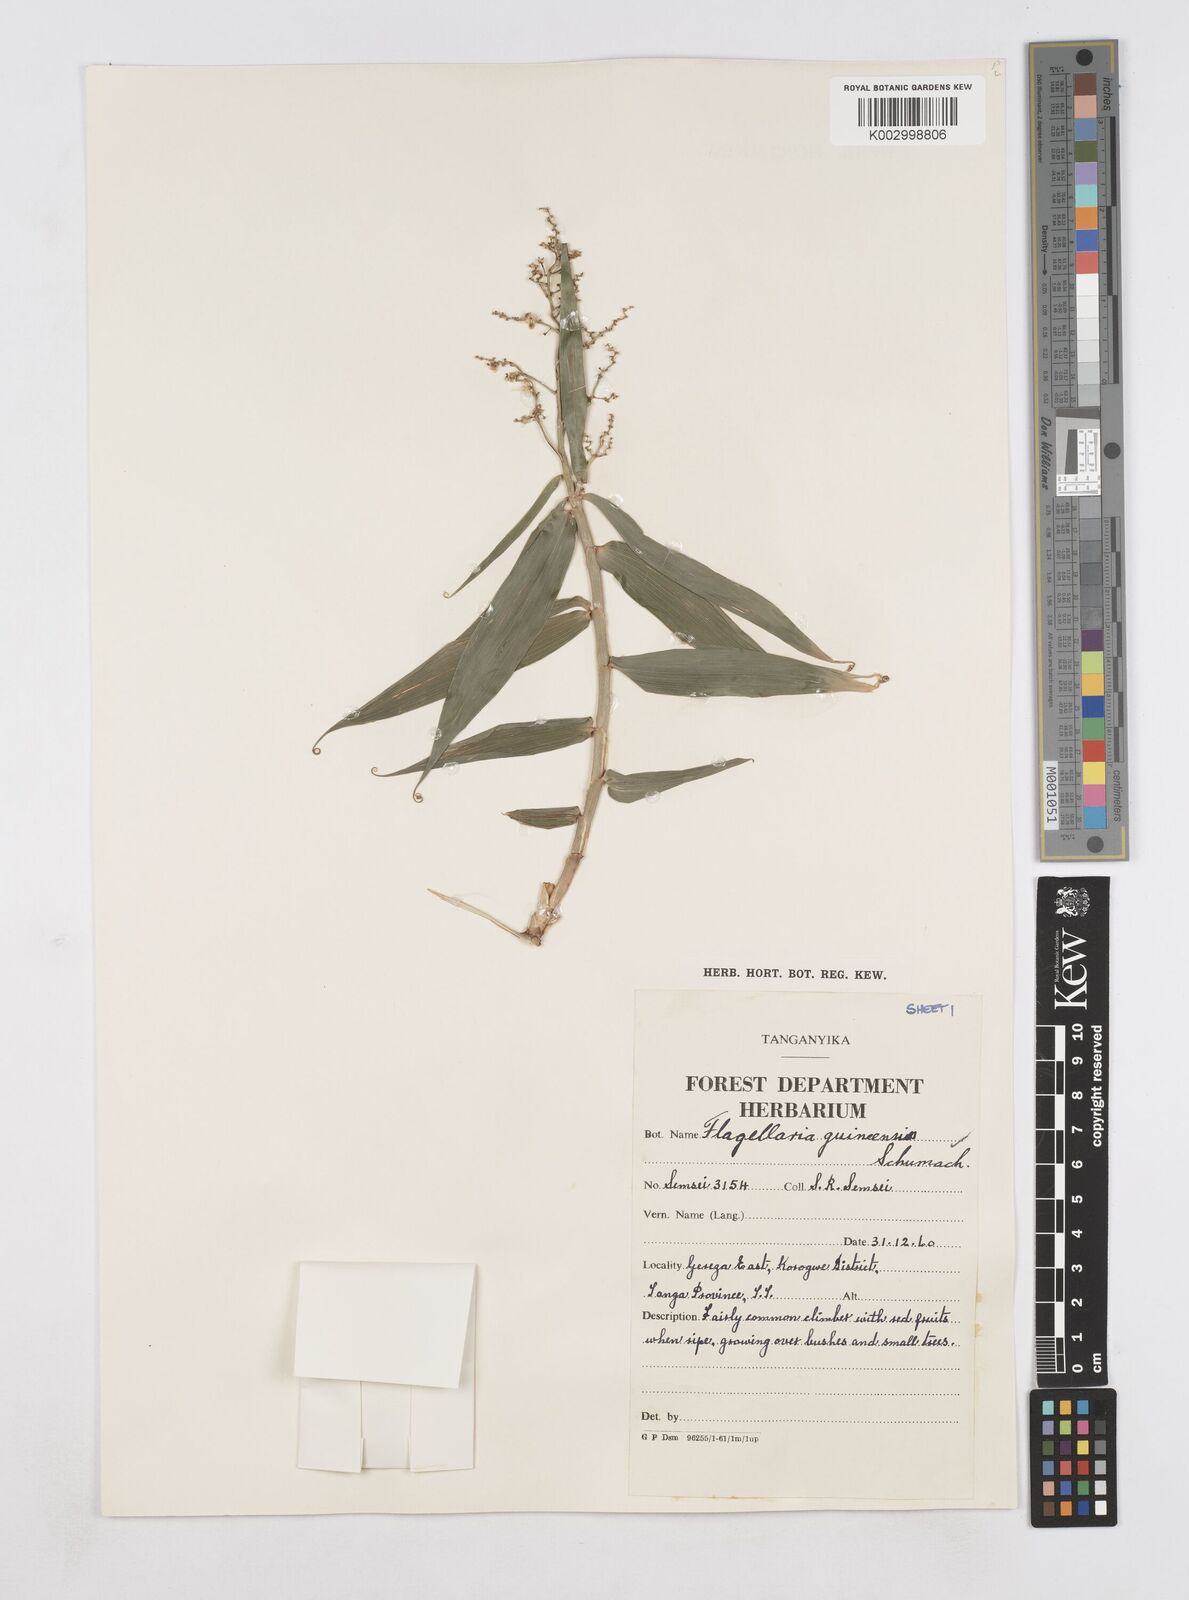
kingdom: Plantae
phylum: Tracheophyta
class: Liliopsida
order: Poales
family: Flagellariaceae
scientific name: Flagellariaceae
